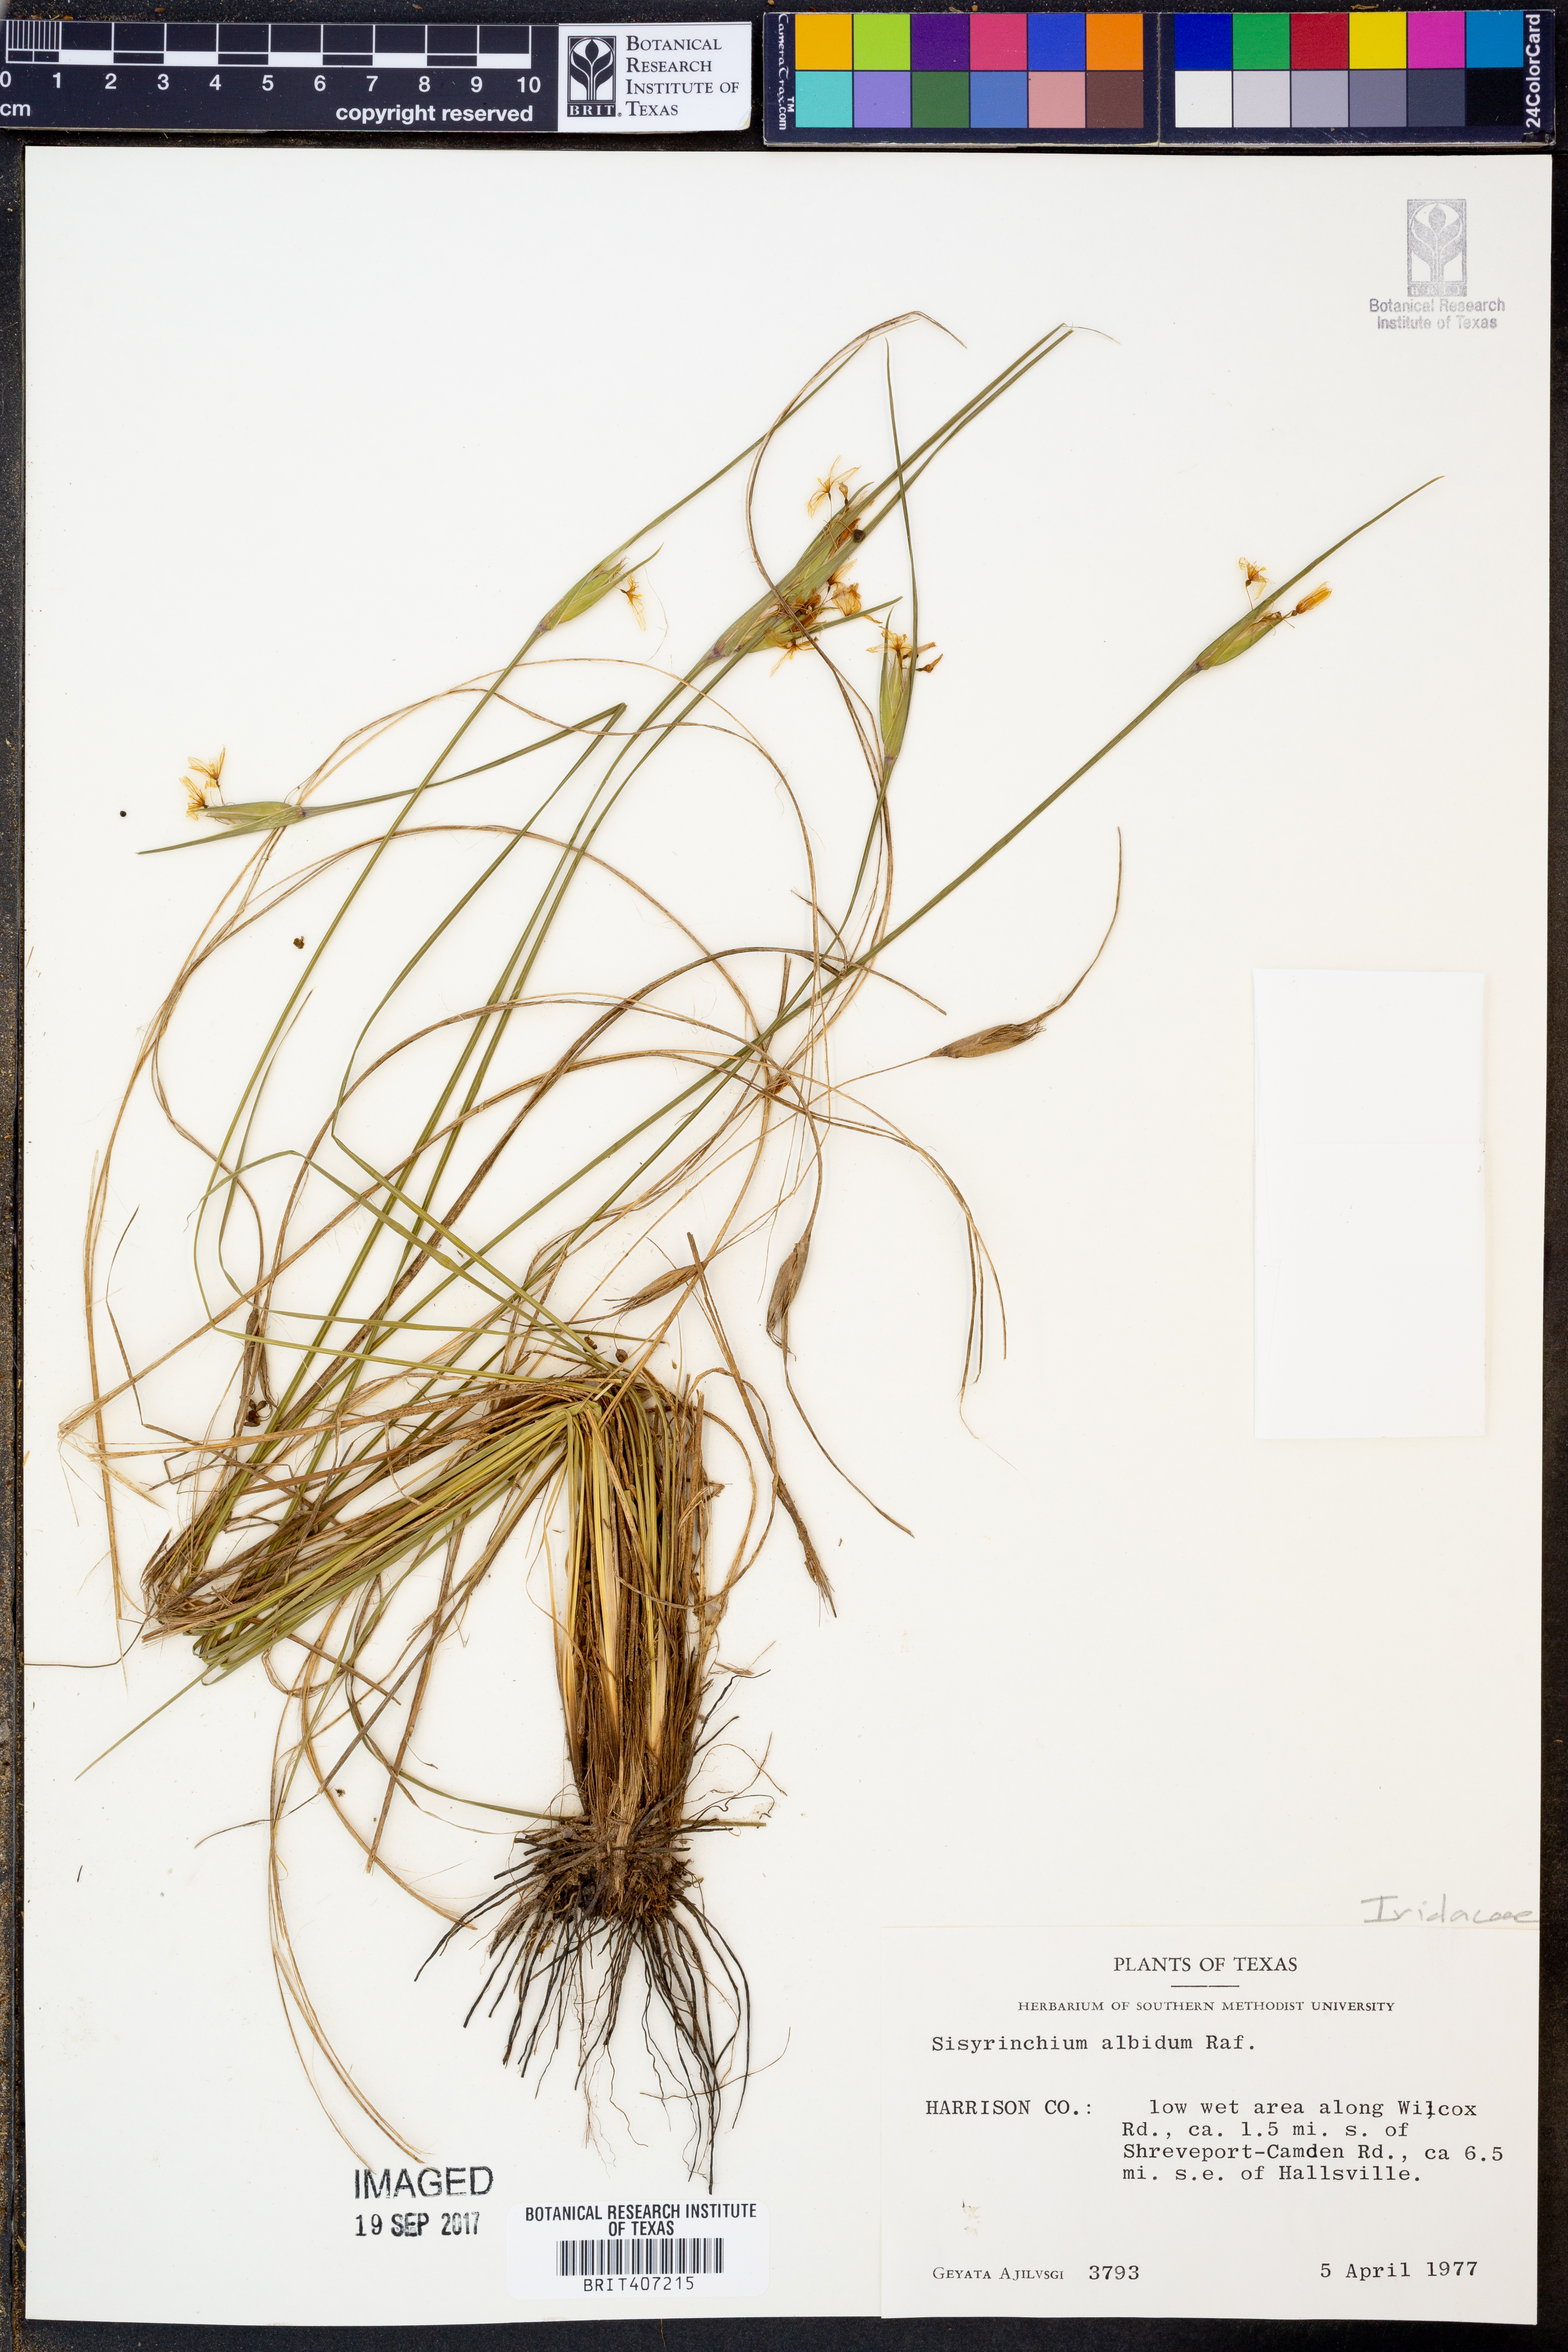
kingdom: Plantae
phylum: Tracheophyta
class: Liliopsida
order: Asparagales
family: Iridaceae
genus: Sisyrinchium
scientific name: Sisyrinchium albidum
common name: Pale blue-eyed-grass
